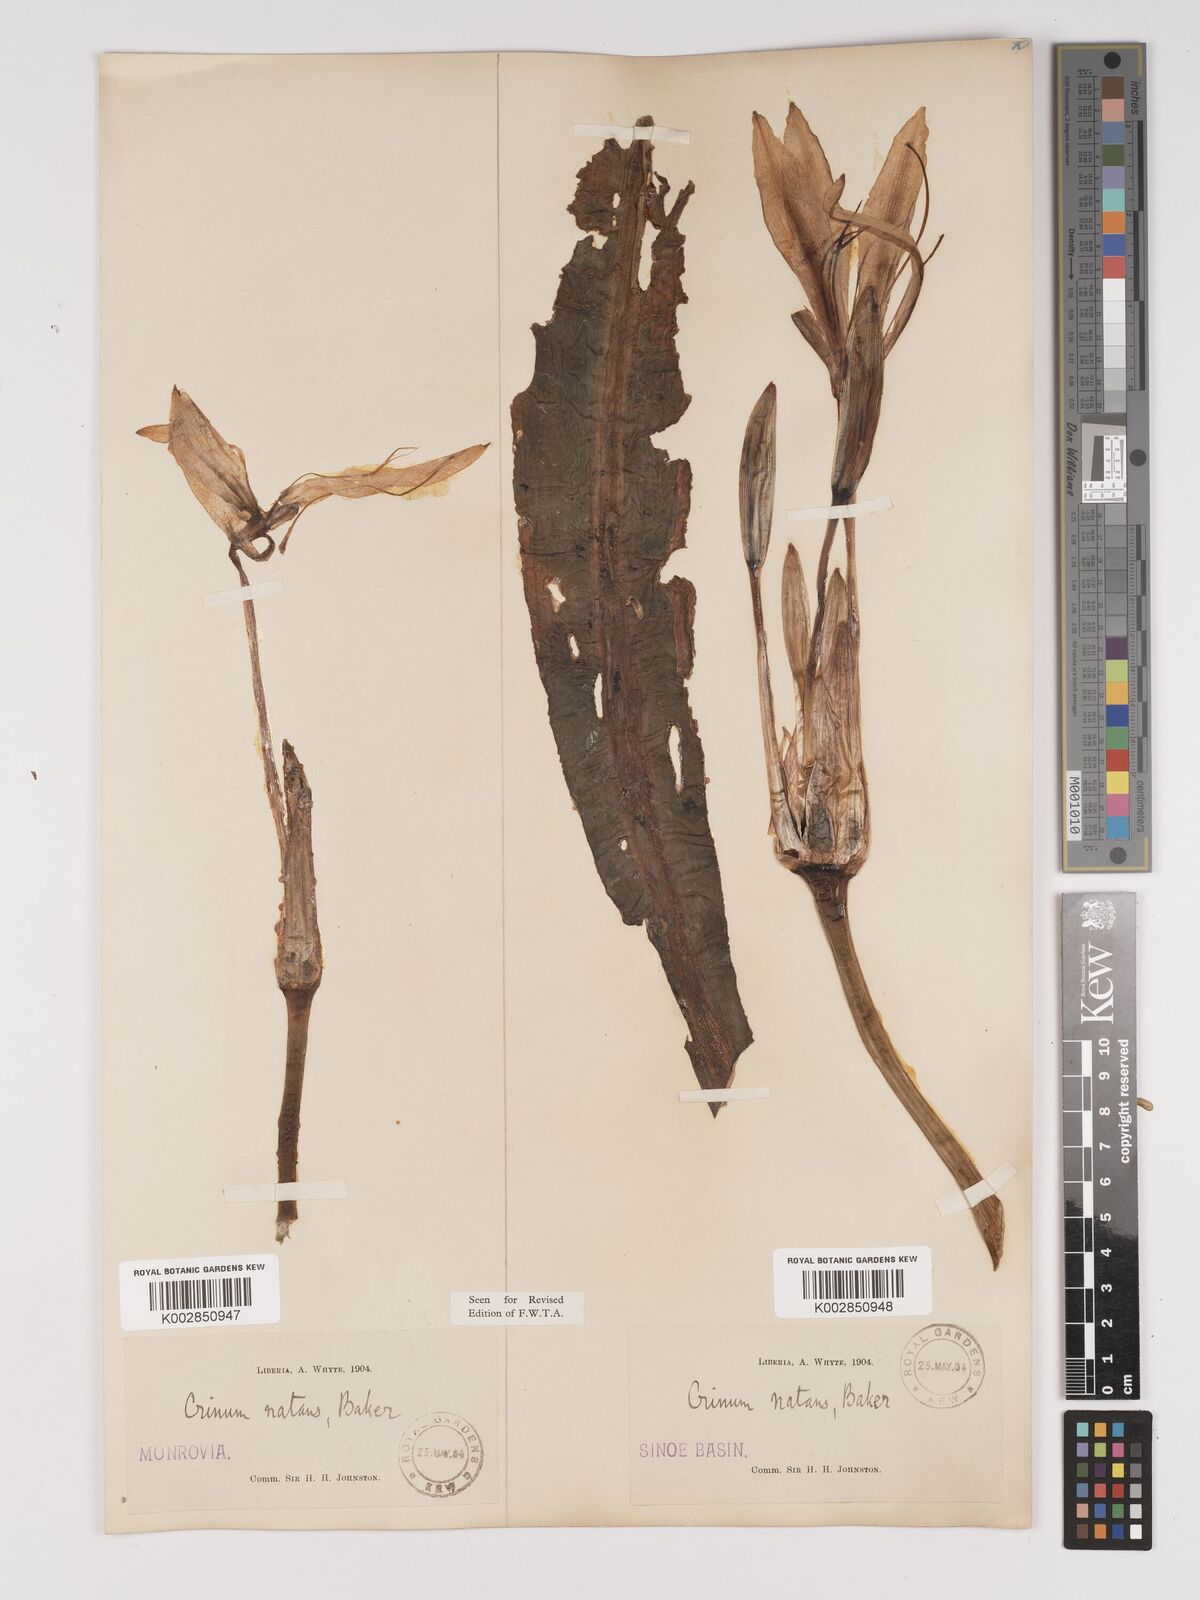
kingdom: Plantae
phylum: Tracheophyta
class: Liliopsida
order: Asparagales
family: Amaryllidaceae
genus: Crinum
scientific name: Crinum moorei
